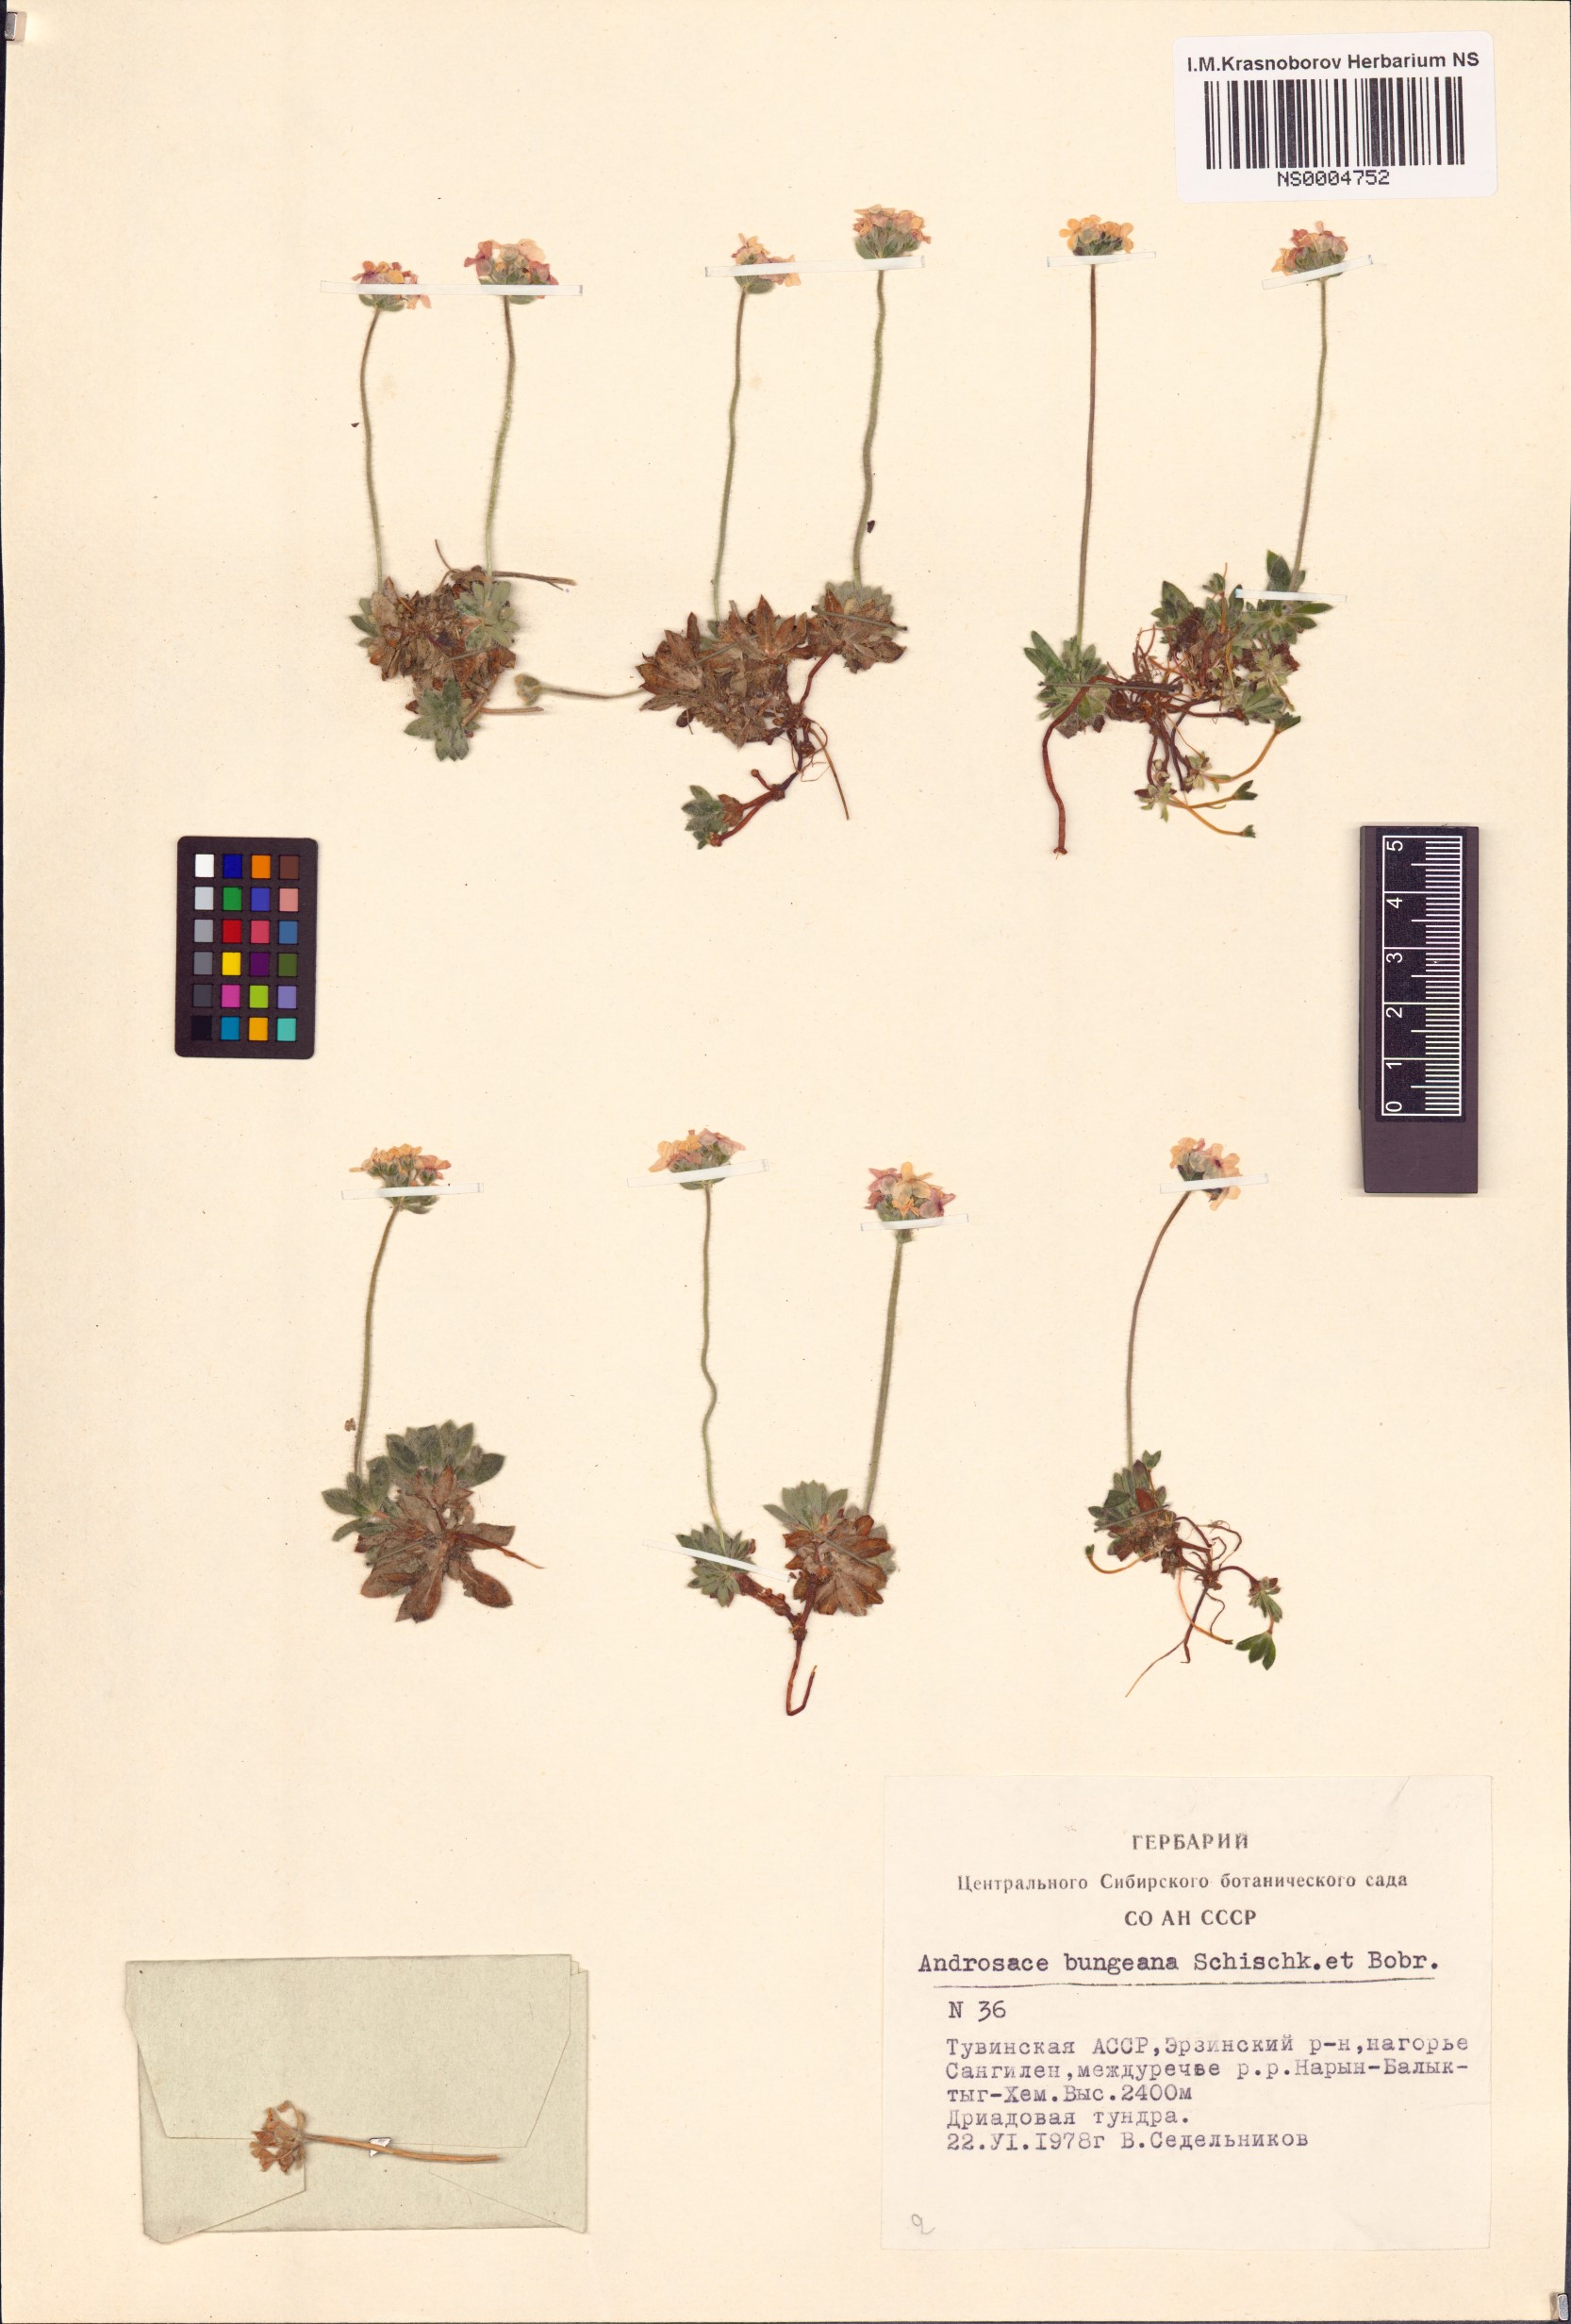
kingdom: Plantae
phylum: Tracheophyta
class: Magnoliopsida
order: Ericales
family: Primulaceae
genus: Androsace
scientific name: Androsace bungeana
